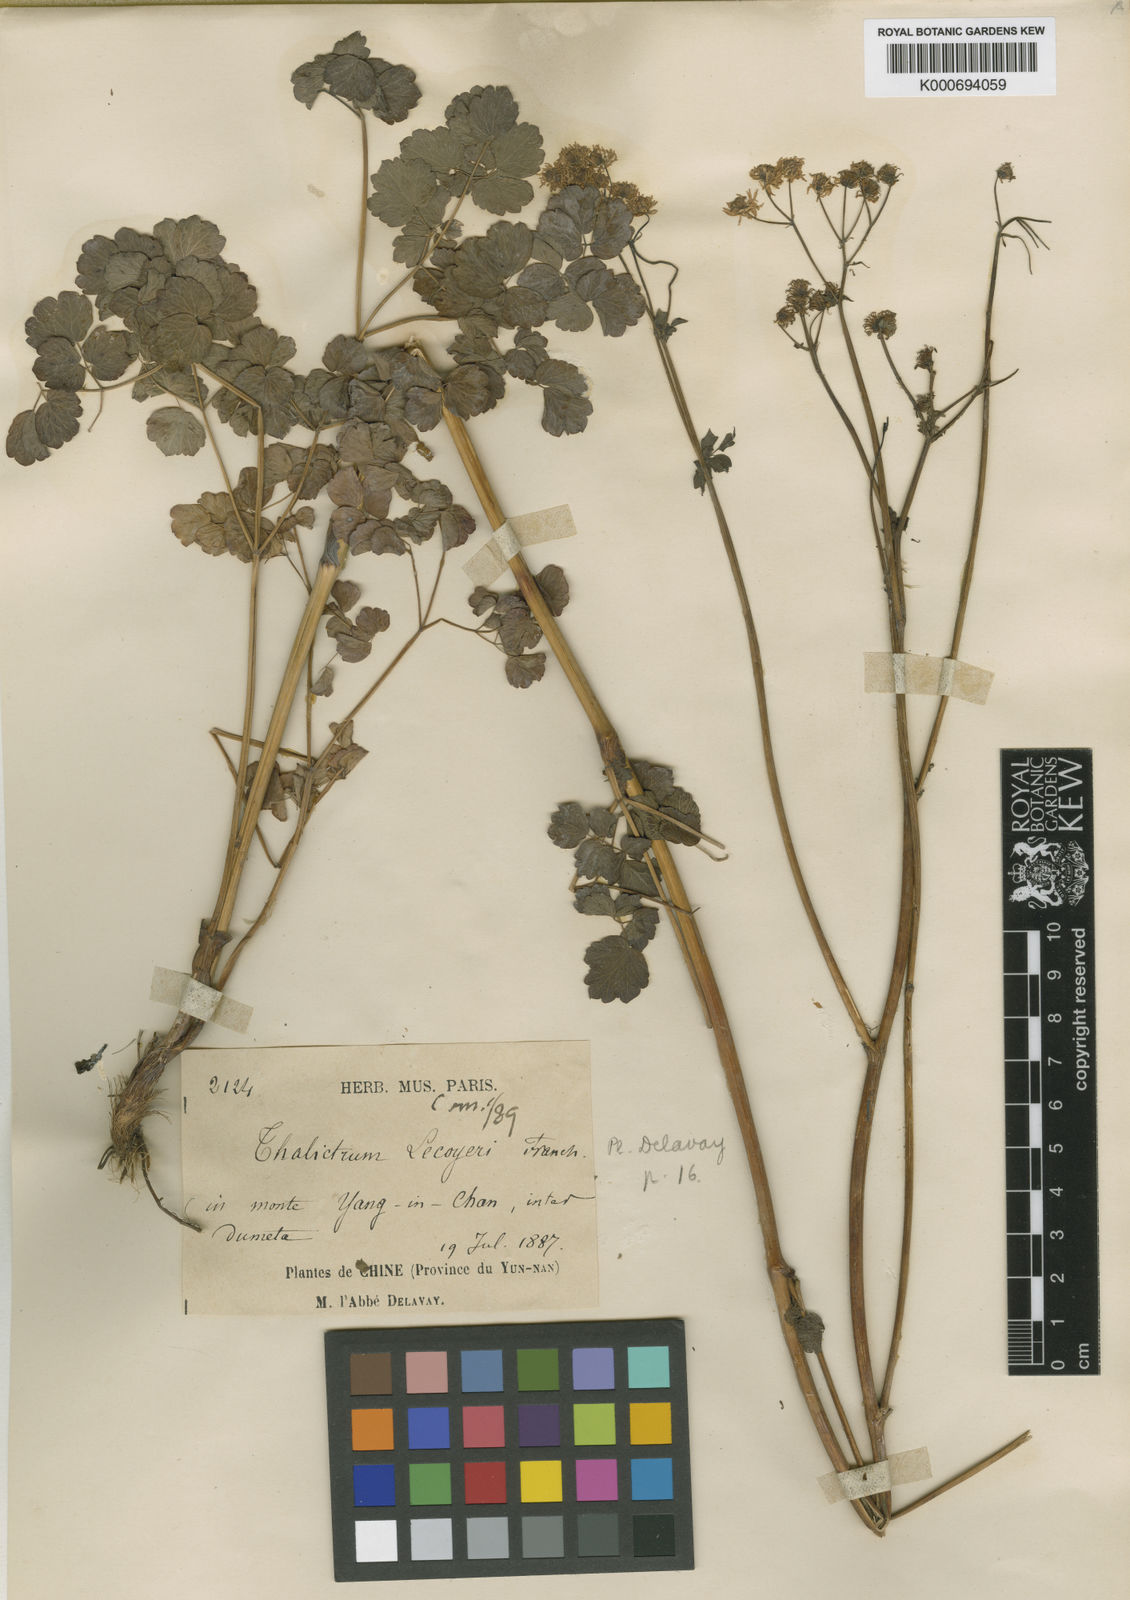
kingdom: Plantae
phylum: Tracheophyta
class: Magnoliopsida
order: Ranunculales
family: Ranunculaceae
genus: Thalictrum
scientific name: Thalictrum lecoyeri
